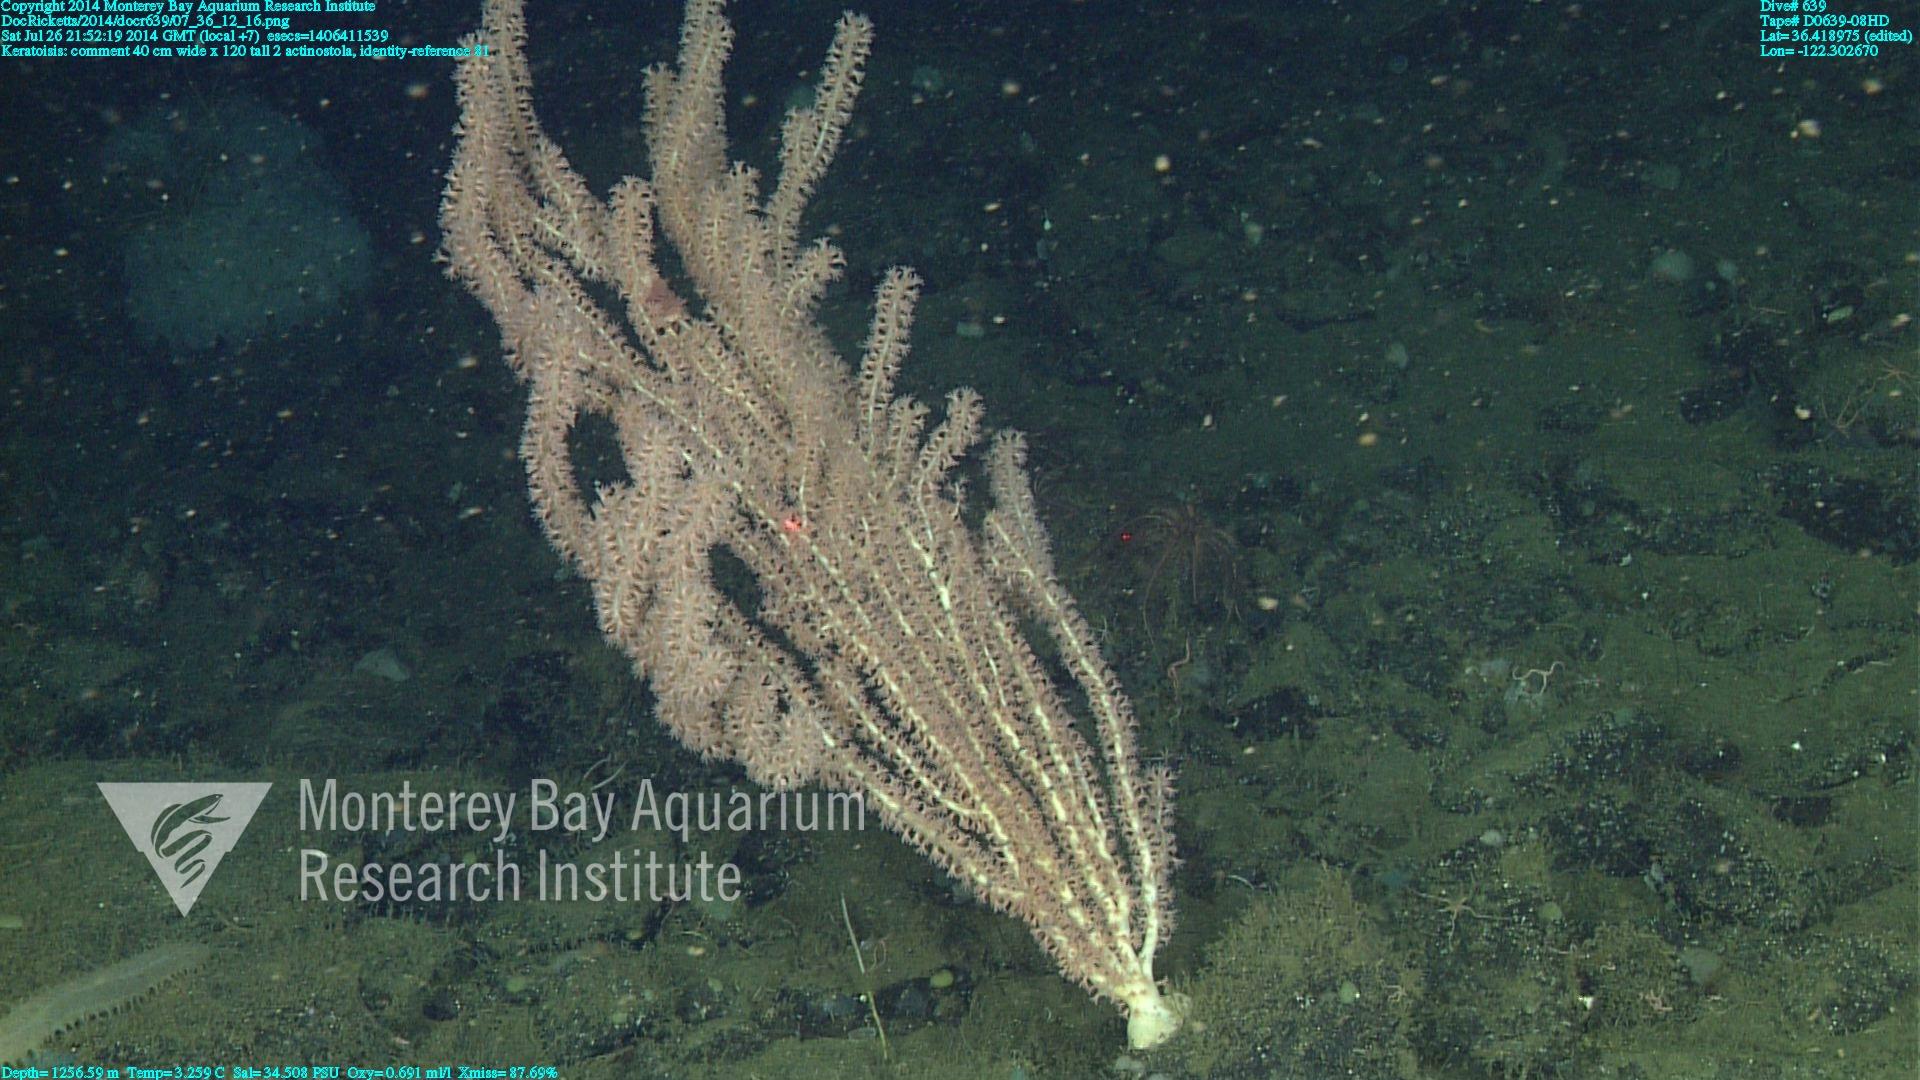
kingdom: Animalia
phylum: Cnidaria
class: Anthozoa
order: Scleralcyonacea
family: Keratoisididae
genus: Keratoisis
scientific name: Keratoisis
